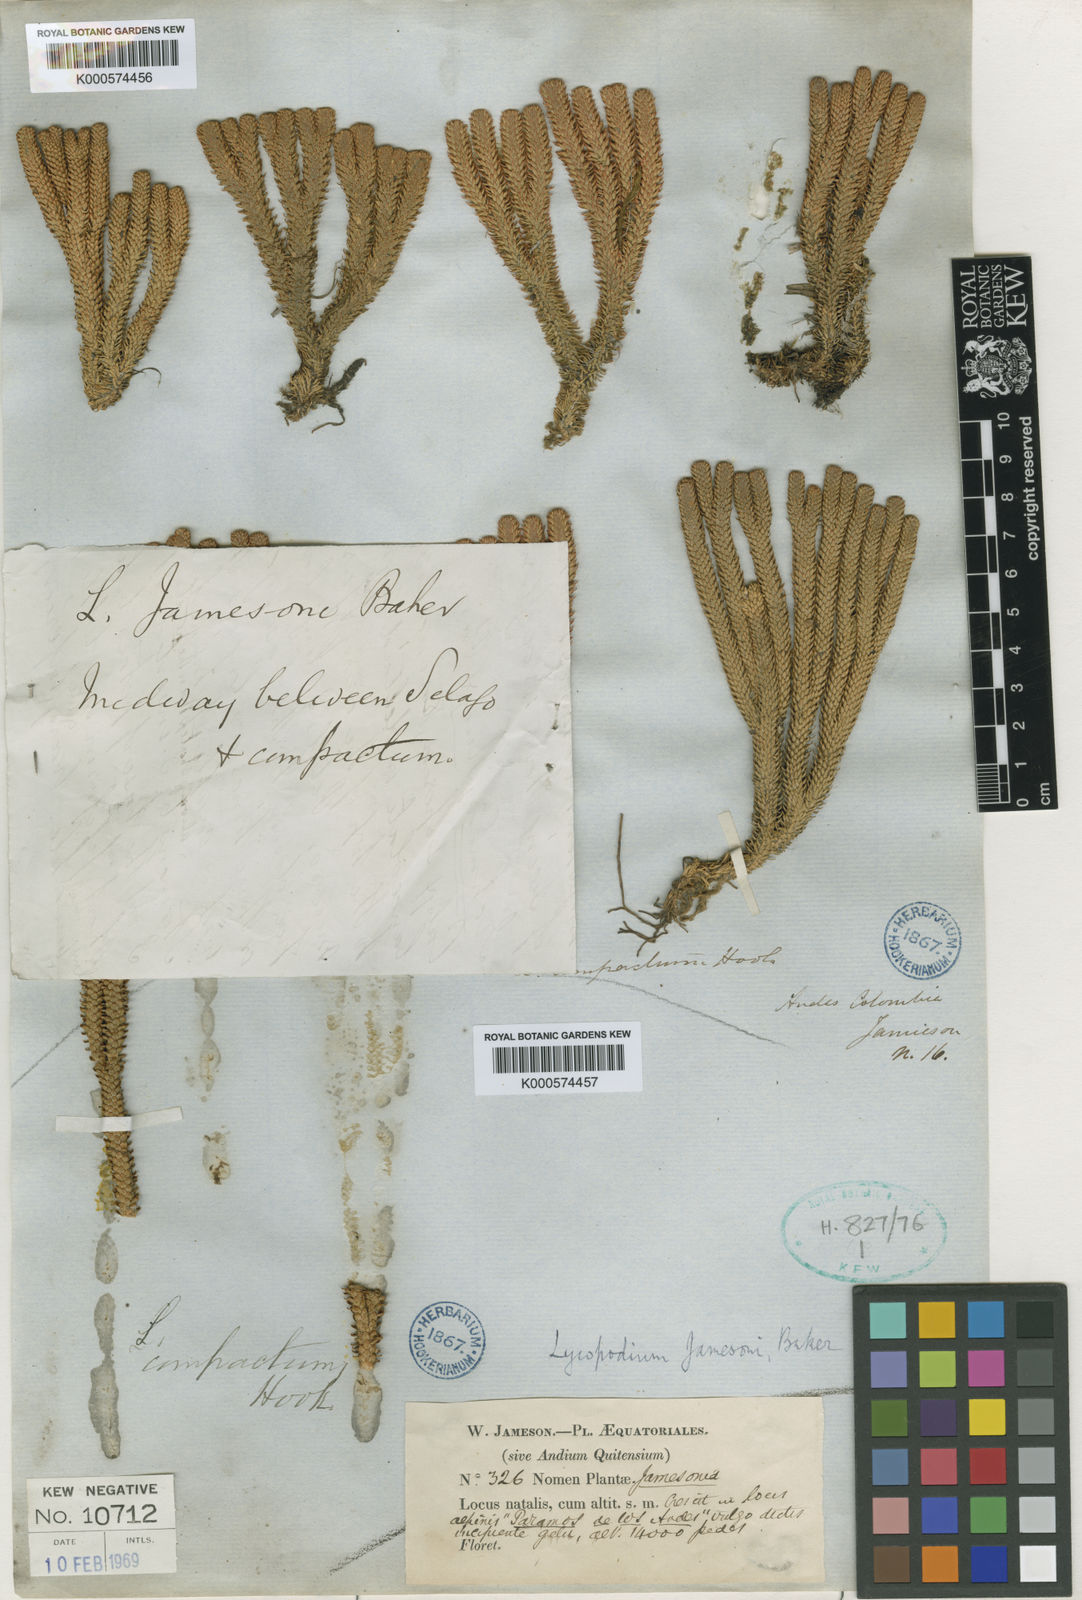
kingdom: Plantae
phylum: Tracheophyta
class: Lycopodiopsida
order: Lycopodiales
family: Lycopodiaceae
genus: Phlegmariurus
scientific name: Phlegmariurus compactus
